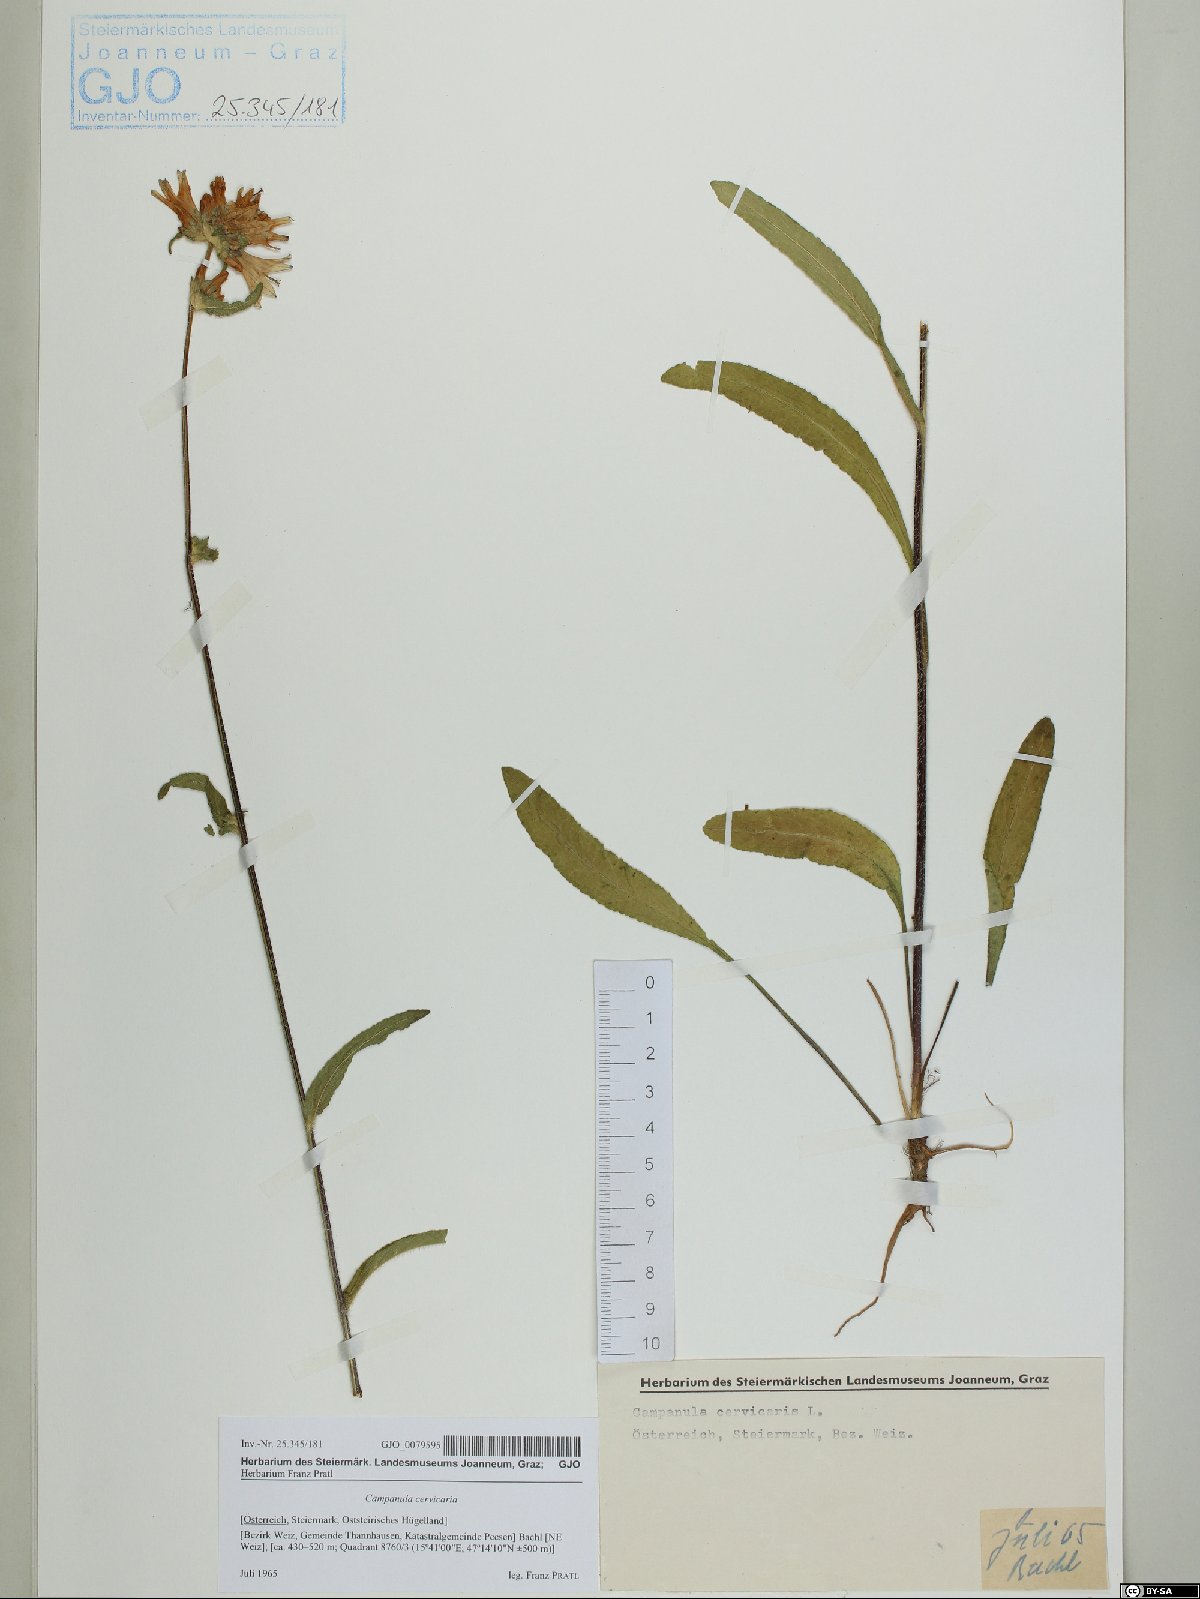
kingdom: Plantae
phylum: Tracheophyta
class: Magnoliopsida
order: Asterales
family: Campanulaceae
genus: Campanula
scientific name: Campanula cervicaria
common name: Bristly bellflower
